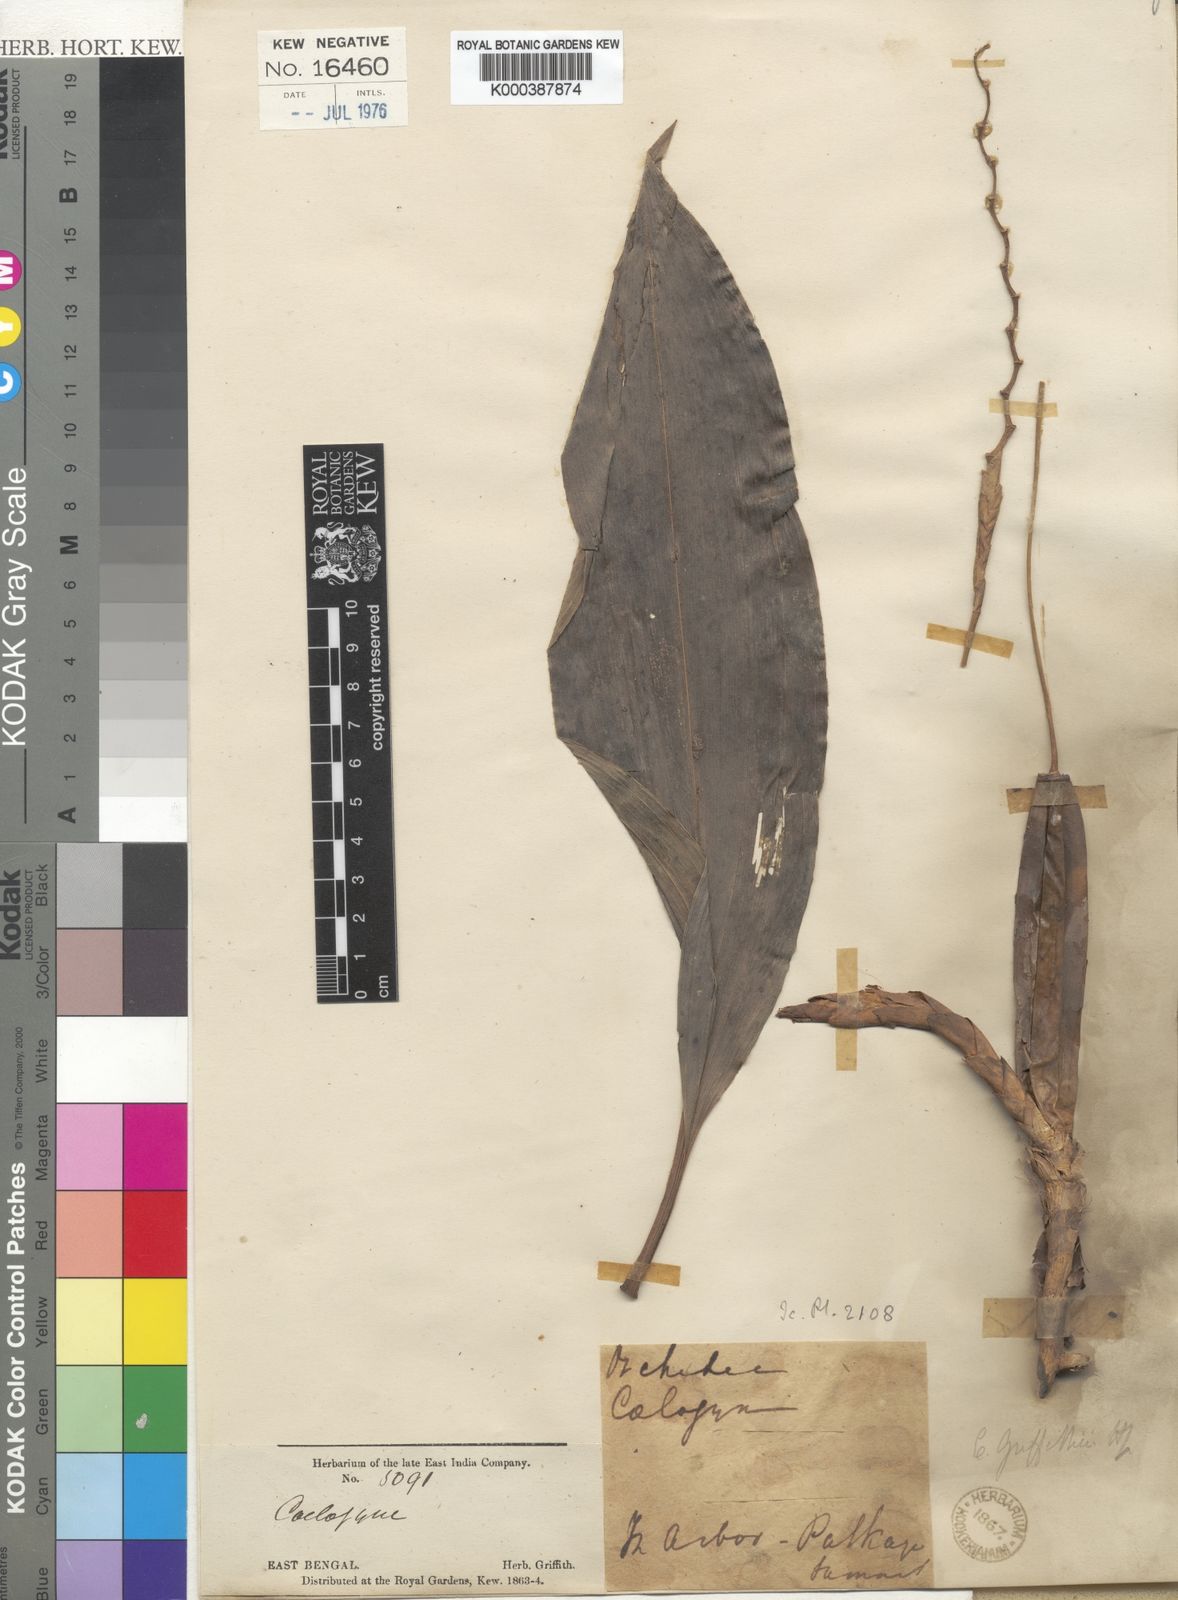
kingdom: Plantae
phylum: Tracheophyta
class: Liliopsida
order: Asparagales
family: Orchidaceae
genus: Coelogyne
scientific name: Coelogyne griffithii
